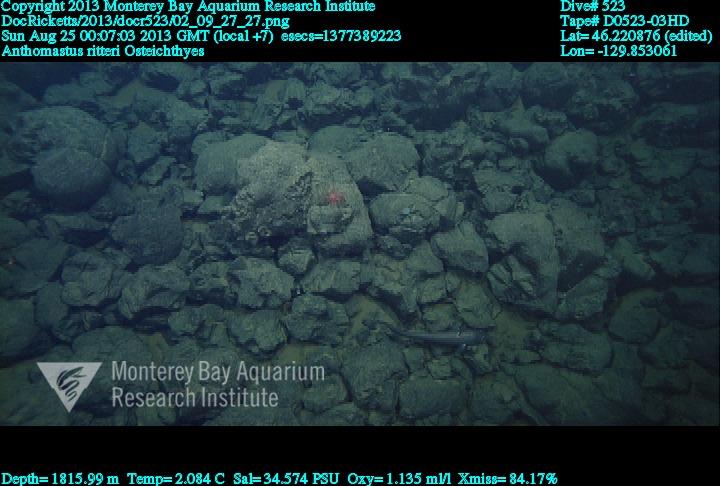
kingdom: Animalia
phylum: Cnidaria
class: Anthozoa
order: Scleralcyonacea
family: Coralliidae
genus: Heteropolypus
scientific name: Heteropolypus ritteri
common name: Ritter's soft coral
